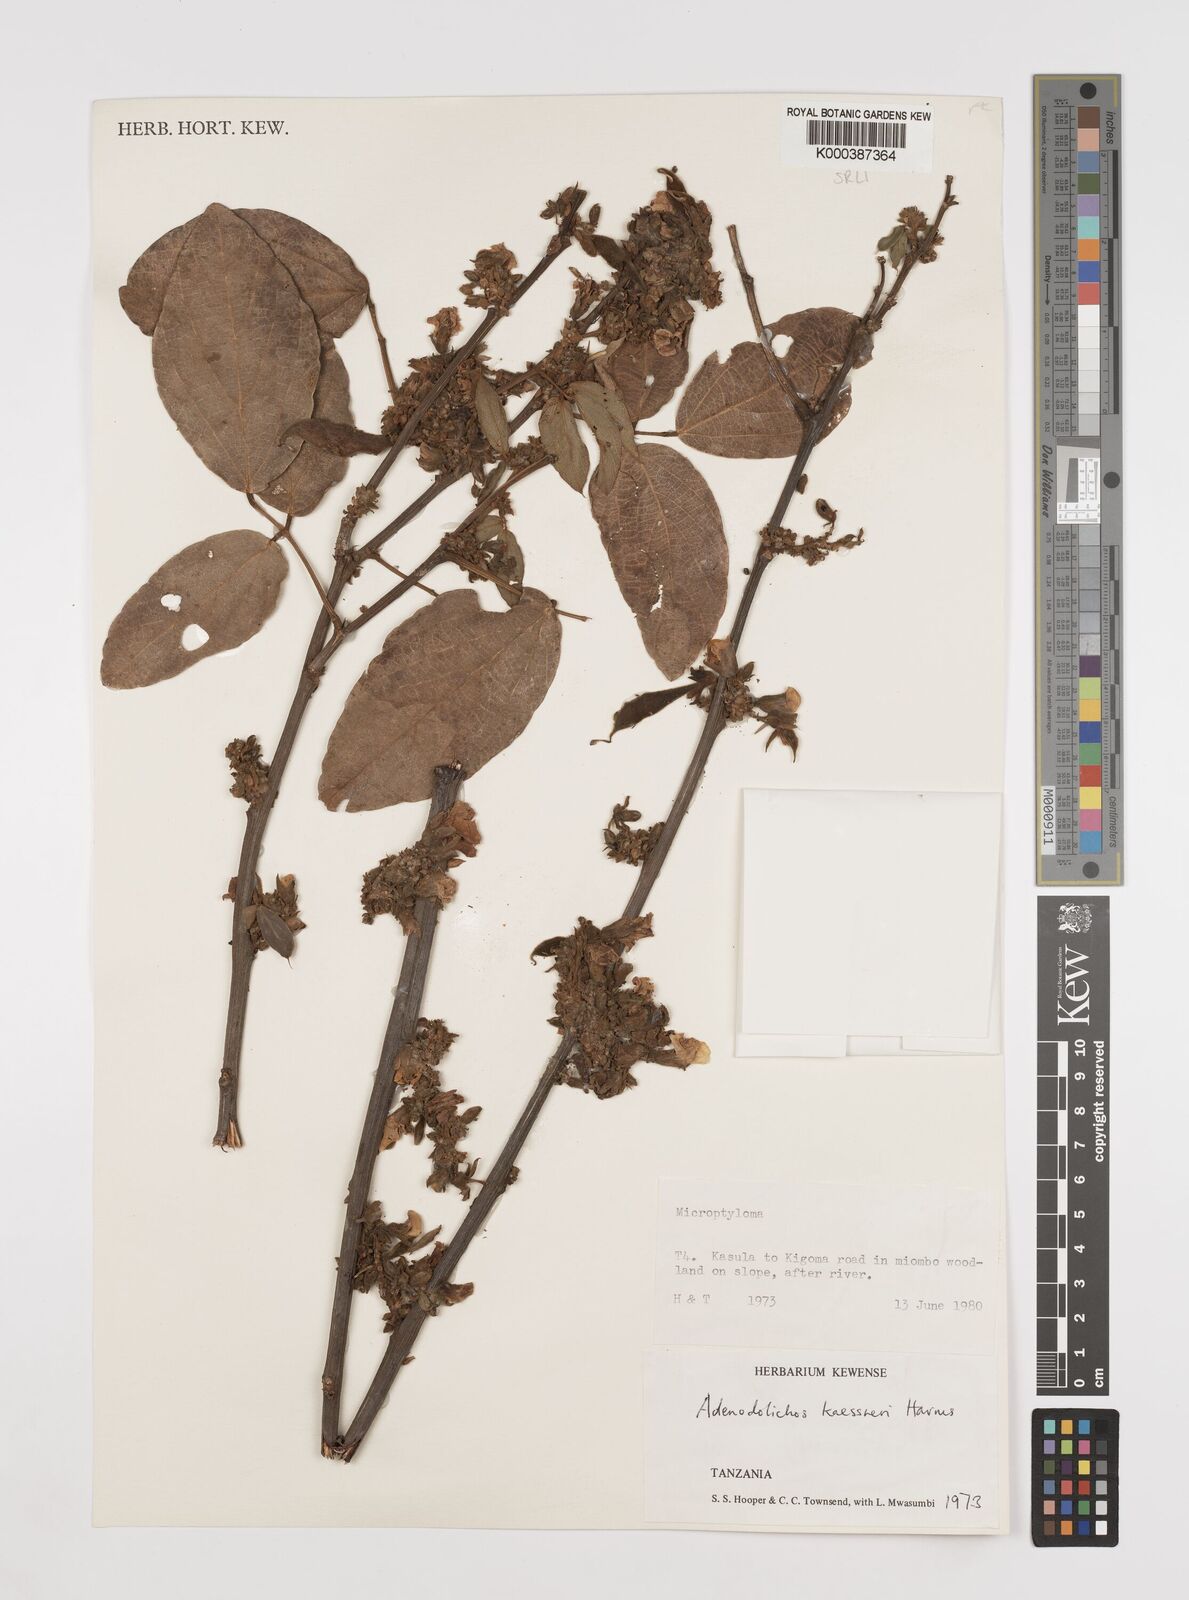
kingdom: Plantae
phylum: Tracheophyta
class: Magnoliopsida
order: Fabales
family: Fabaceae
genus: Adenodolichos
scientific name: Adenodolichos kaessneri
